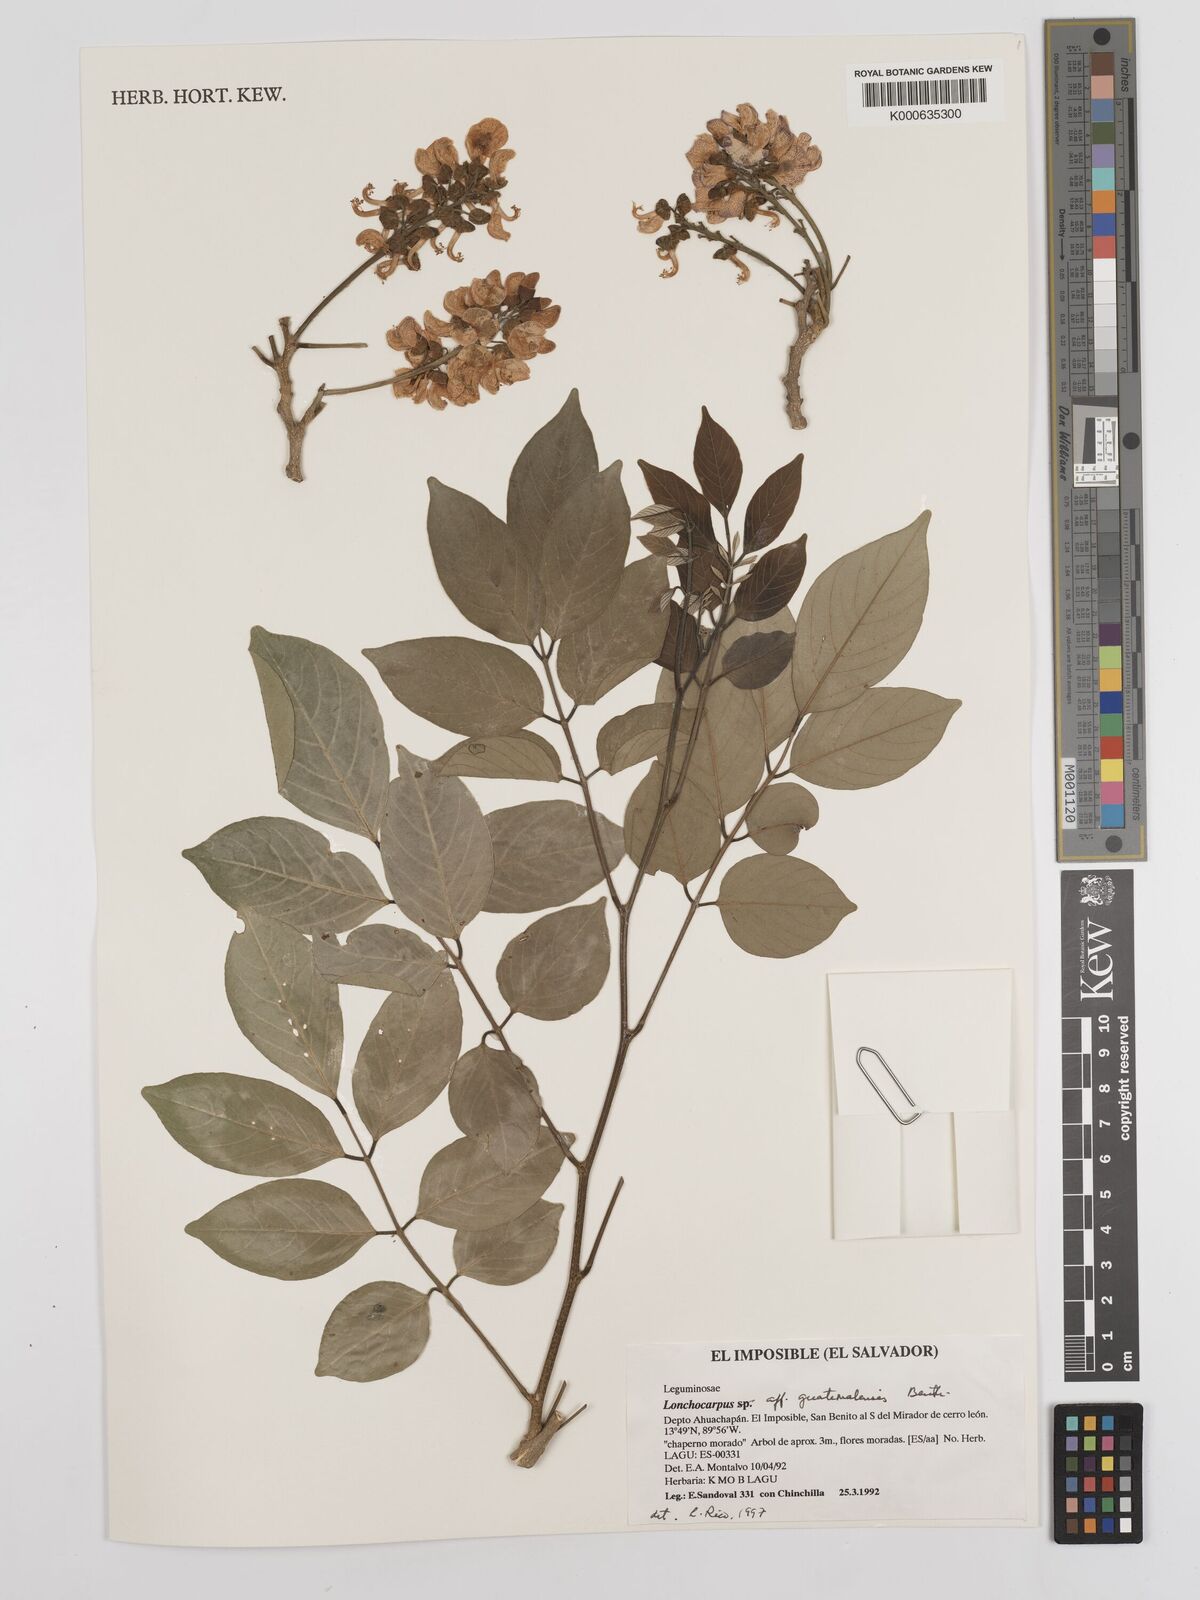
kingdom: Plantae
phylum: Tracheophyta
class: Magnoliopsida
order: Fabales
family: Fabaceae
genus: Lonchocarpus
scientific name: Lonchocarpus guatemalensis
